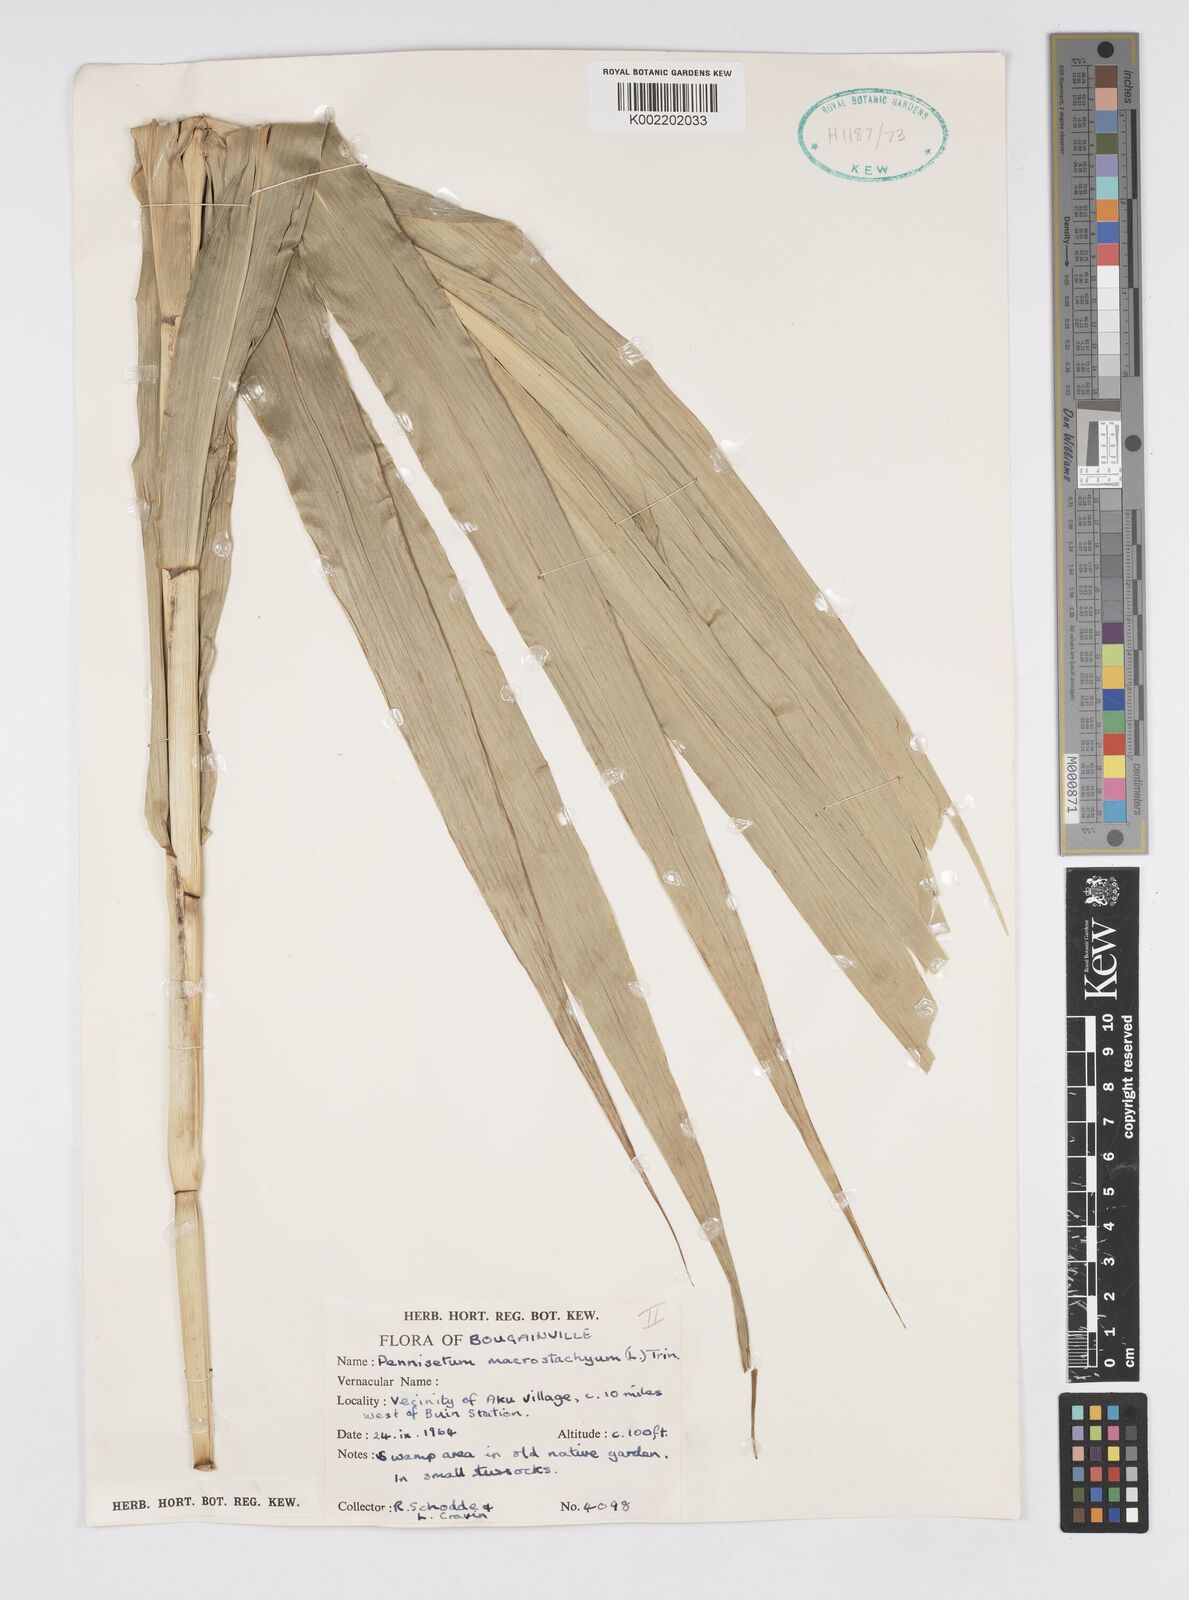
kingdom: Plantae
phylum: Tracheophyta
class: Liliopsida
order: Poales
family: Poaceae
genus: Cenchrus
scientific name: Cenchrus purpureus
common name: Elephant grass
